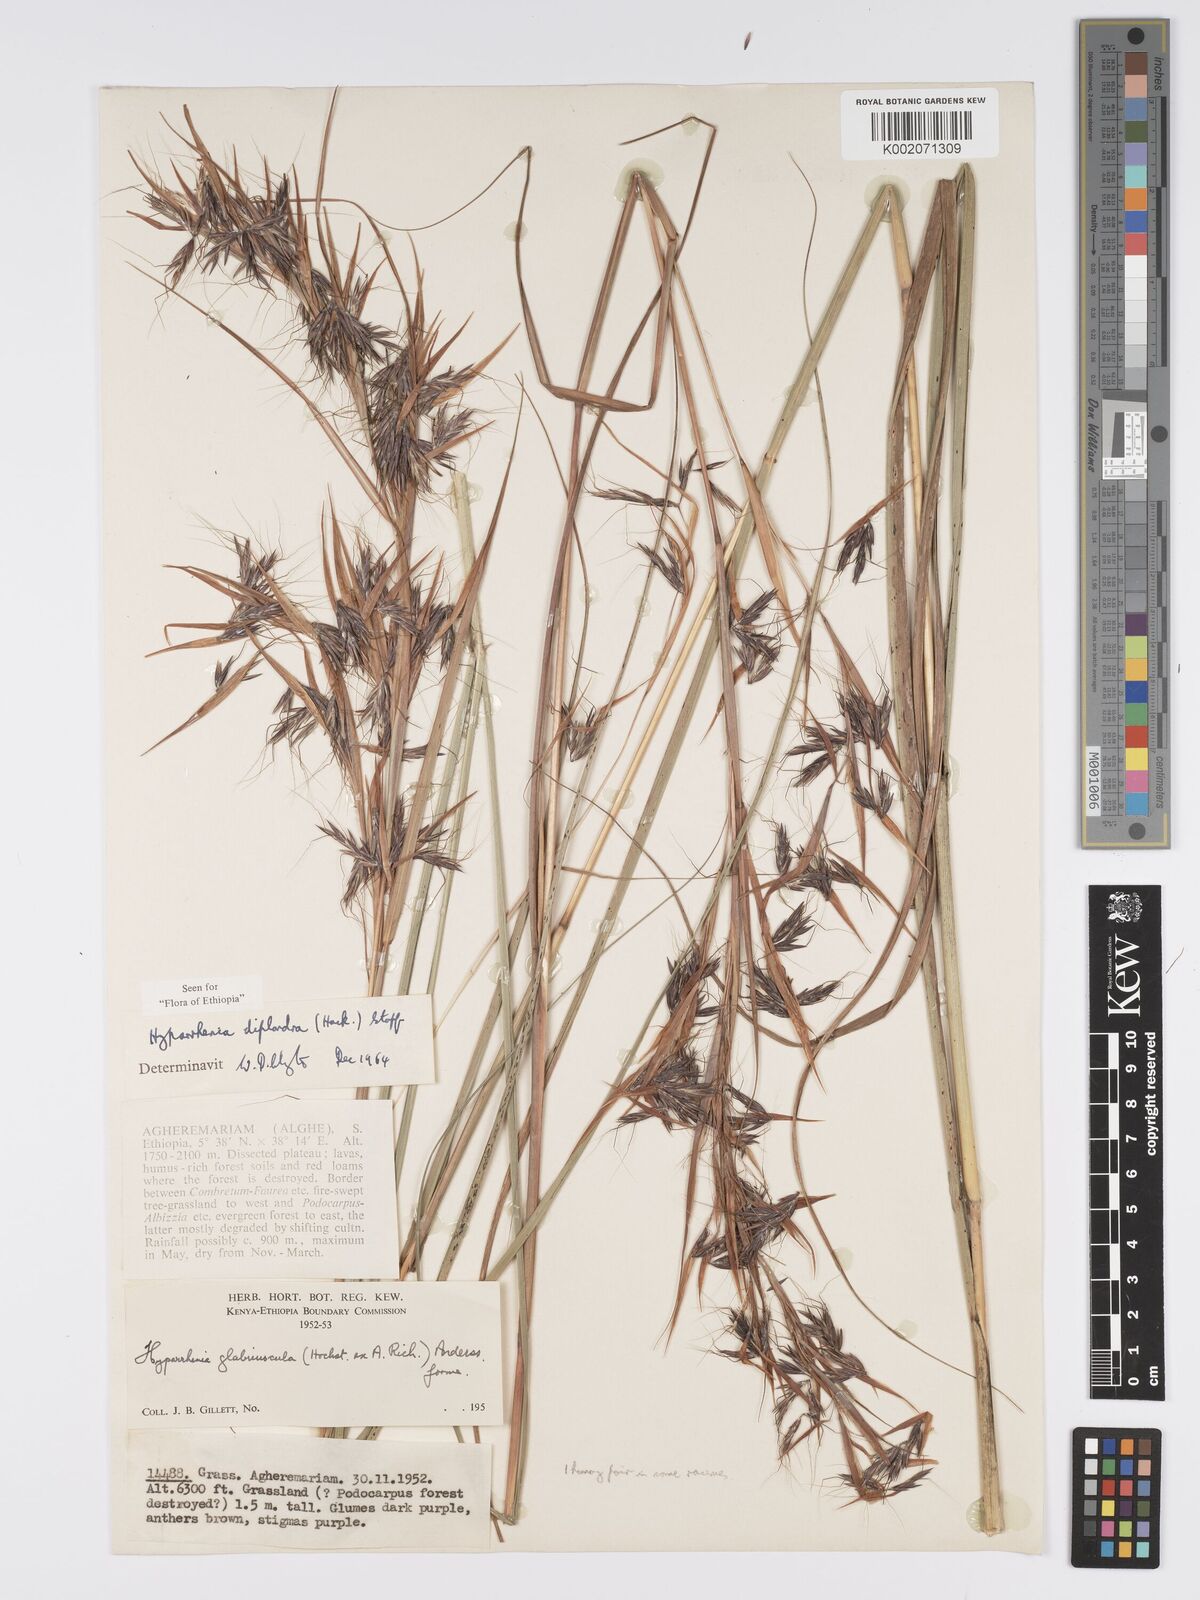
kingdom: Plantae
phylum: Tracheophyta
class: Liliopsida
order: Poales
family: Poaceae
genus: Hyparrhenia
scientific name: Hyparrhenia diplandra
